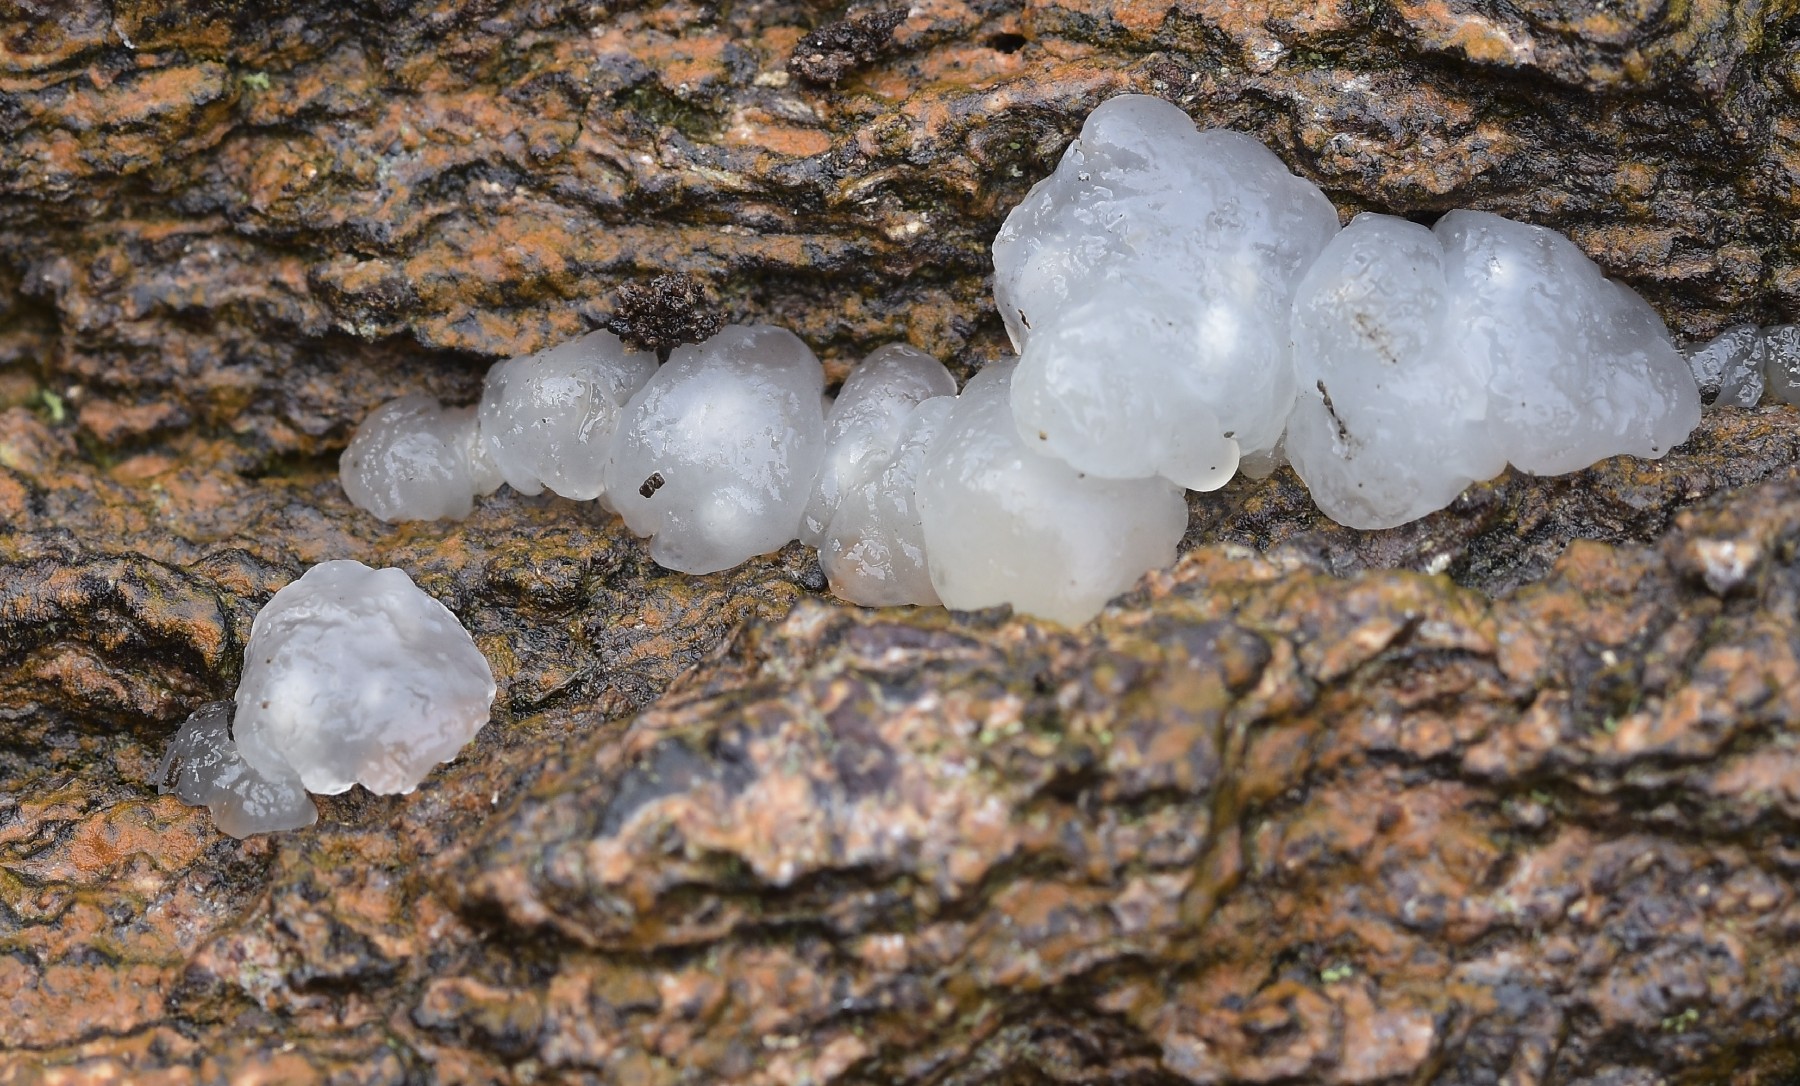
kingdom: Fungi
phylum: Basidiomycota
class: Agaricomycetes
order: Auriculariales
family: Hyaloriaceae
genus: Myxarium
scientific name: Myxarium nucleatum
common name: klar bævretop
